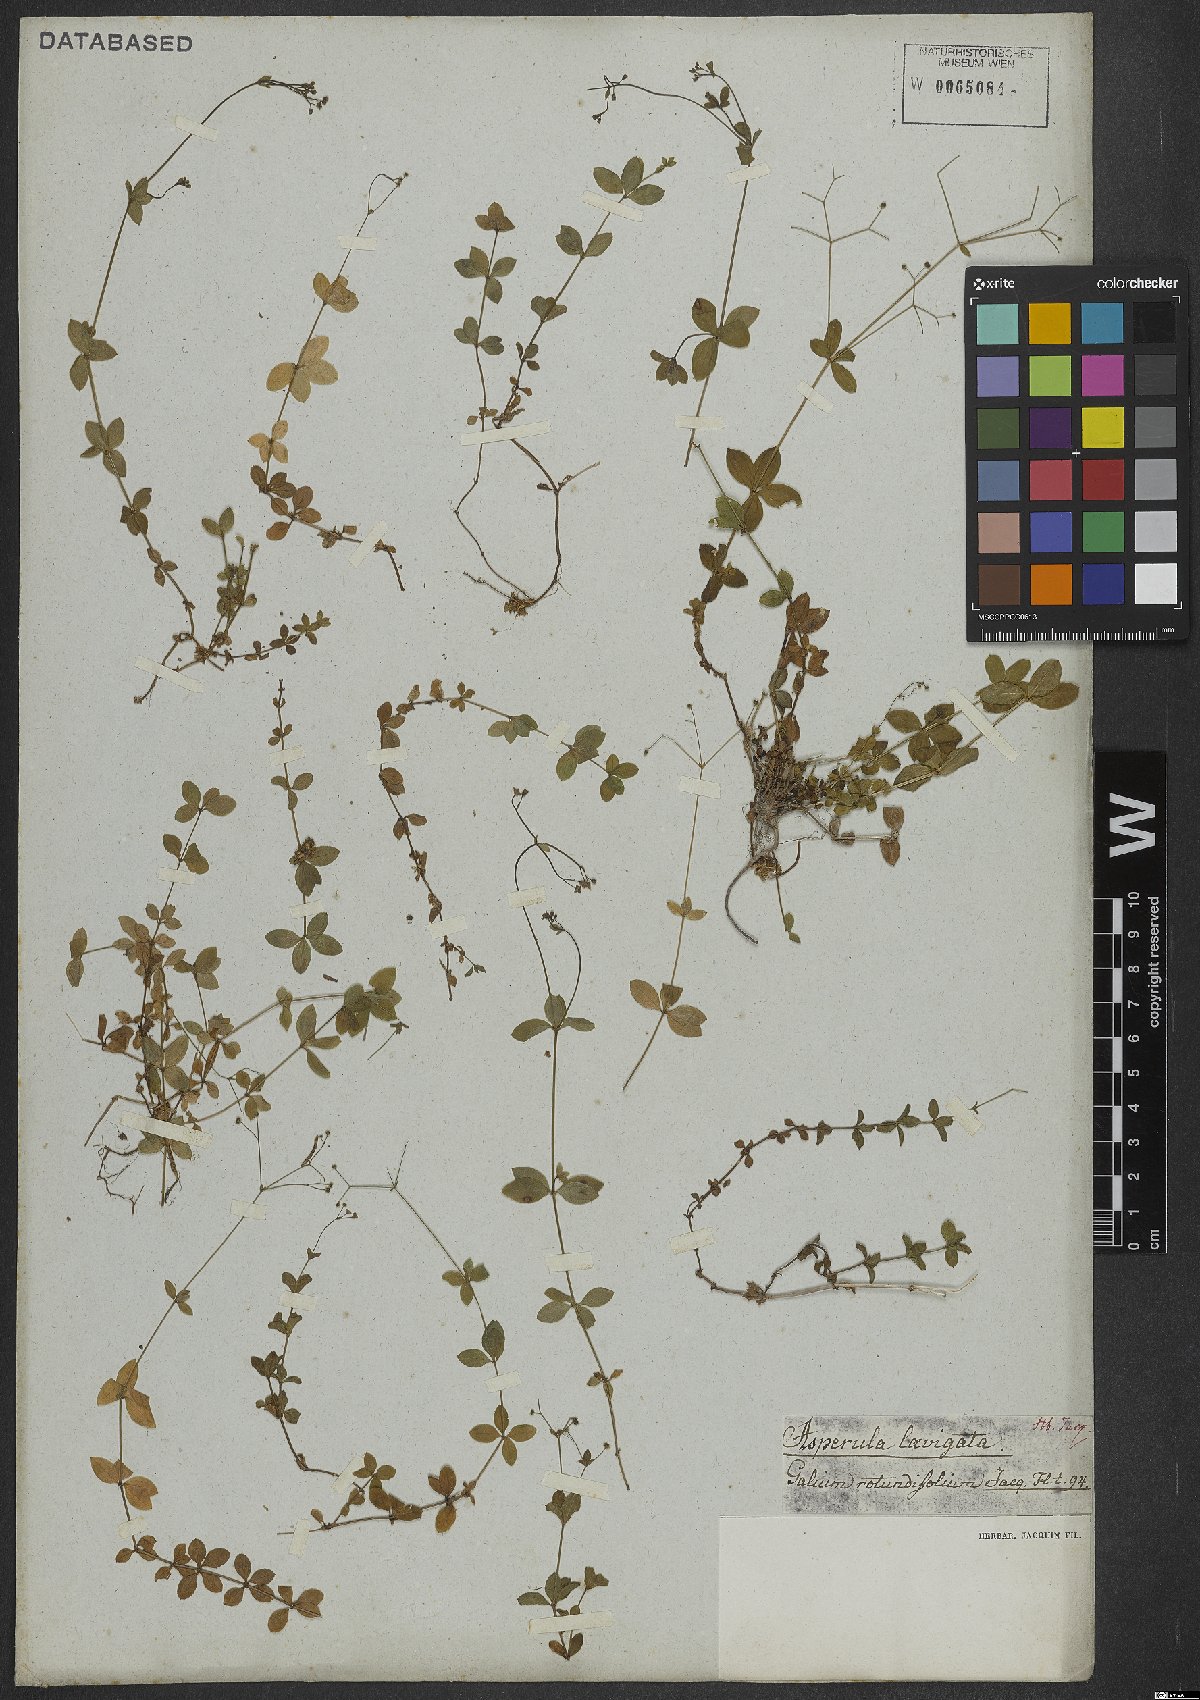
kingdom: Plantae
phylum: Tracheophyta
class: Magnoliopsida
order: Gentianales
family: Rubiaceae
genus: Galium
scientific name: Galium rotundifolium
